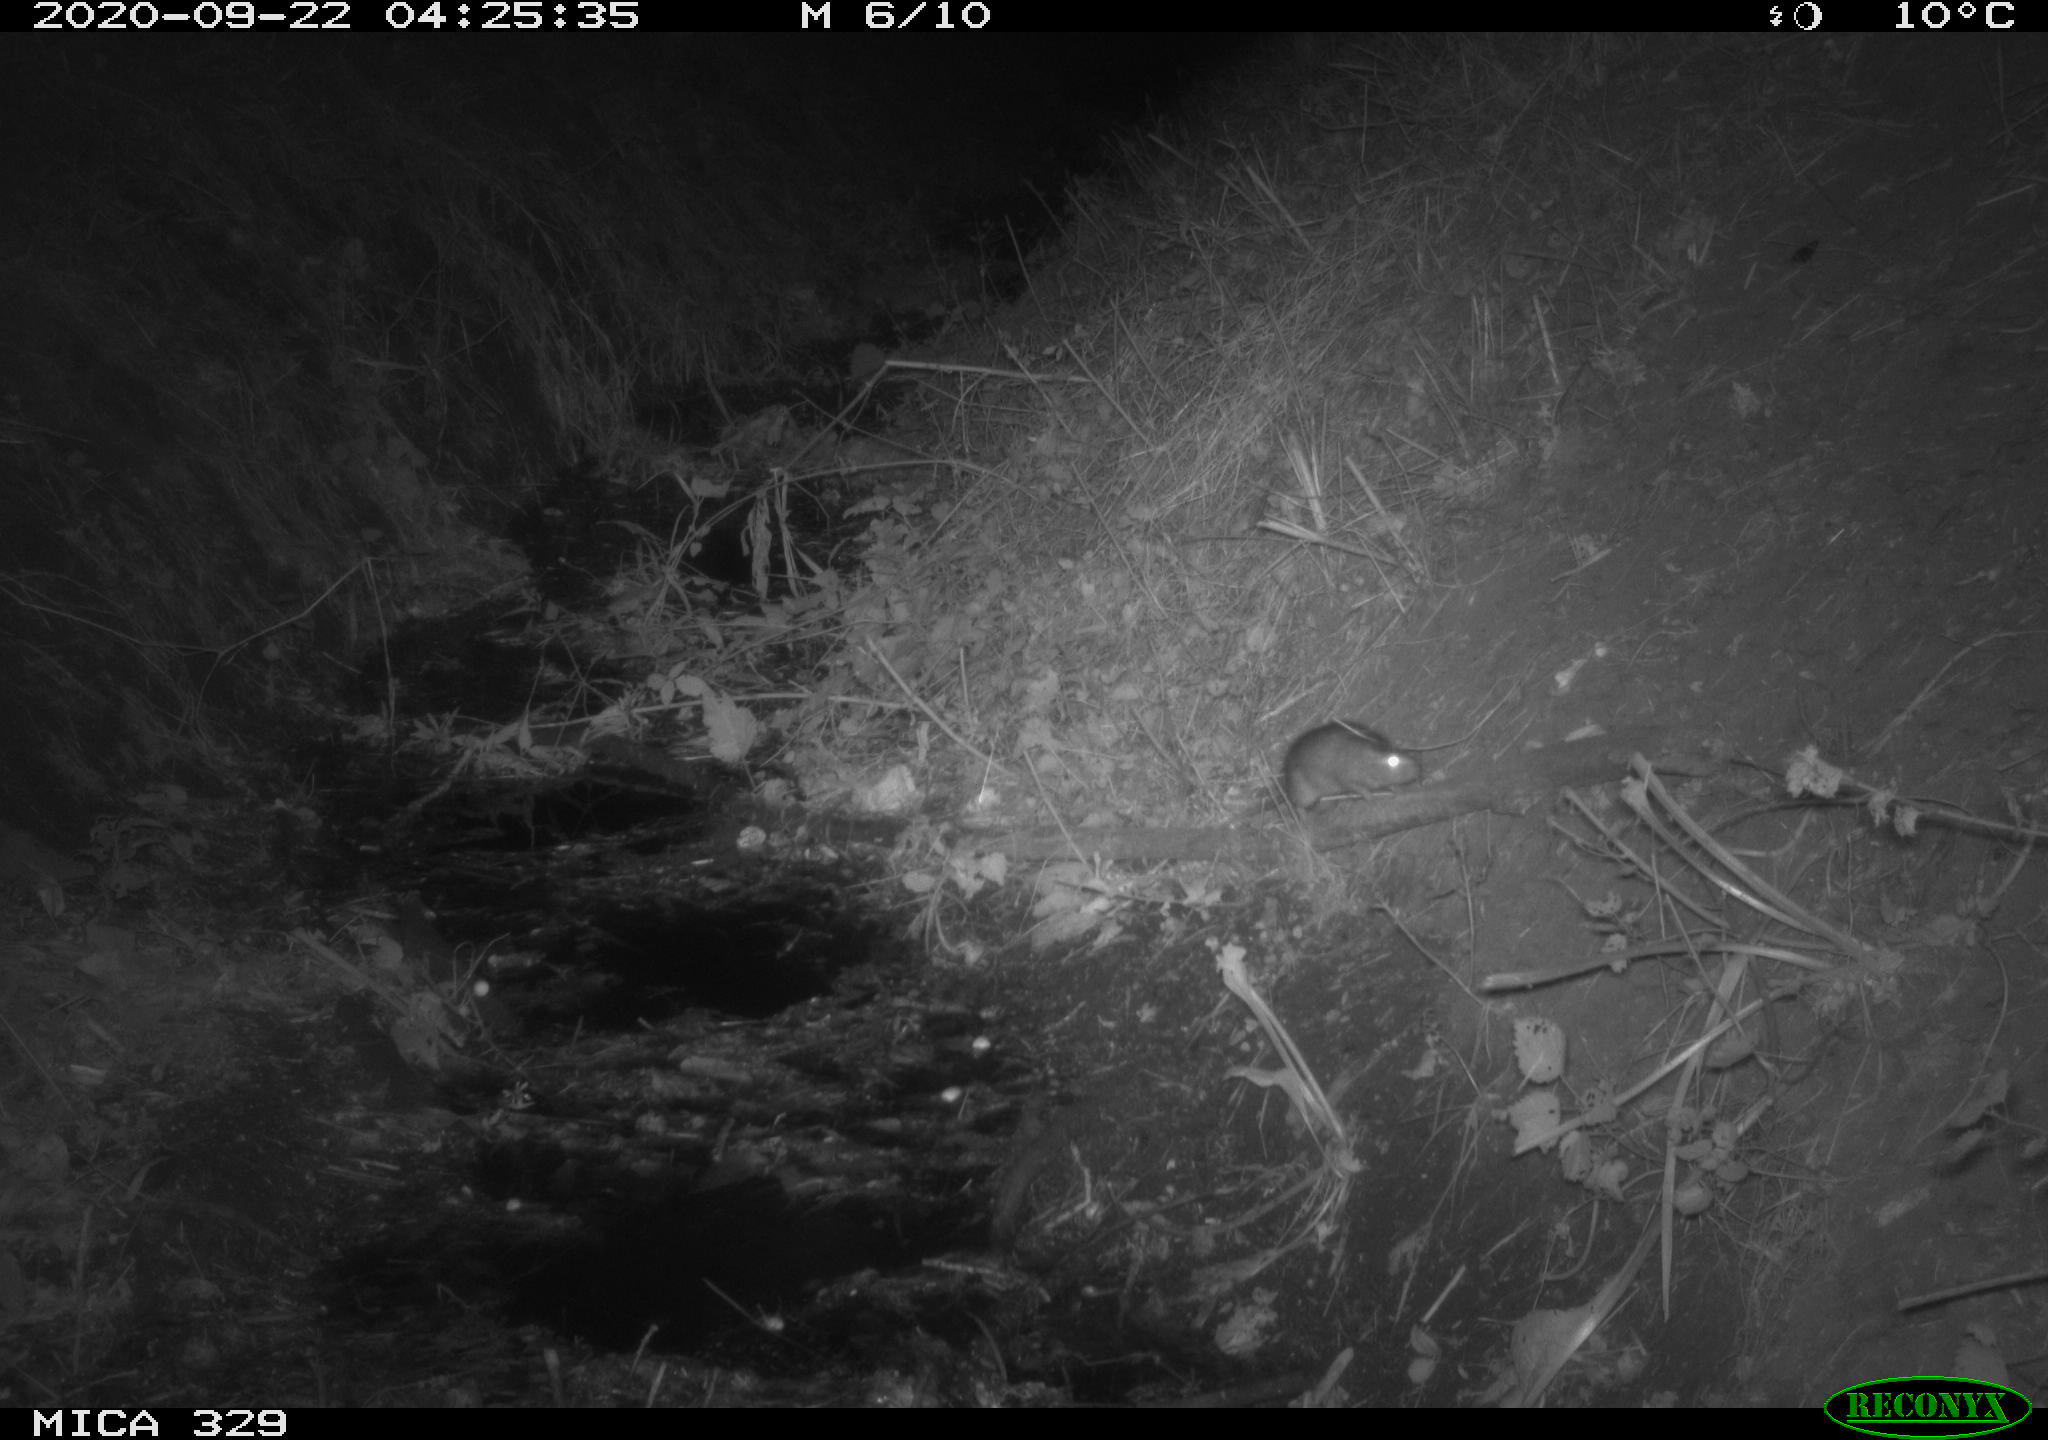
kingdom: Animalia
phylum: Chordata
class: Mammalia
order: Rodentia
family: Muridae
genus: Rattus
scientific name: Rattus norvegicus
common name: Brown rat
